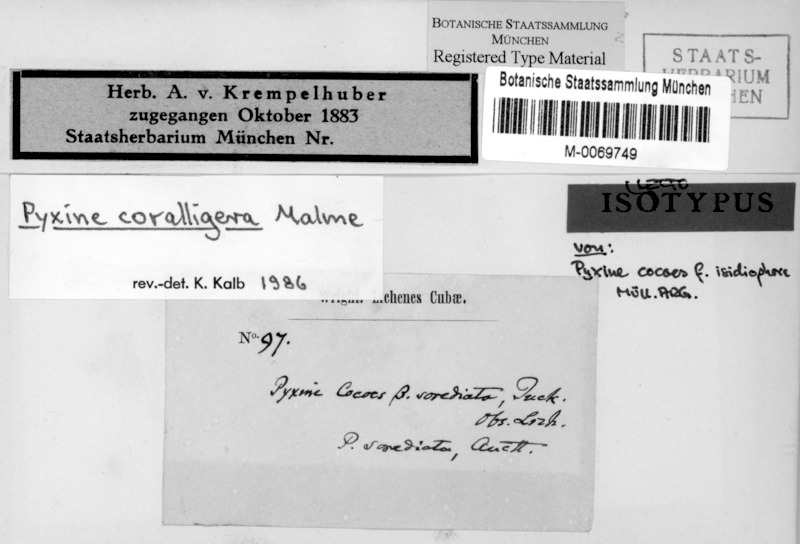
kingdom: Fungi
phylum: Ascomycota
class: Lecanoromycetes
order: Caliciales
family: Caliciaceae
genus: Pyxine
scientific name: Pyxine coralligera
